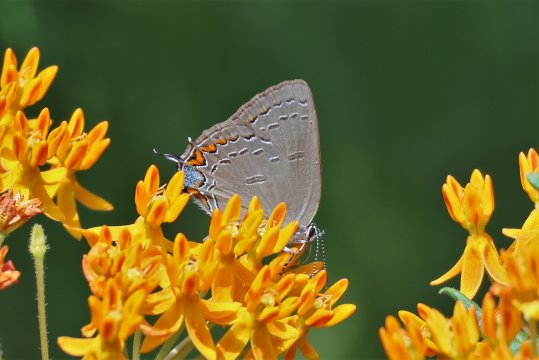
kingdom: Animalia
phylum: Arthropoda
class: Insecta
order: Lepidoptera
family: Lycaenidae
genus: Satyrium
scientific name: Satyrium edwardsii
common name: Edwards' Hairstreak
